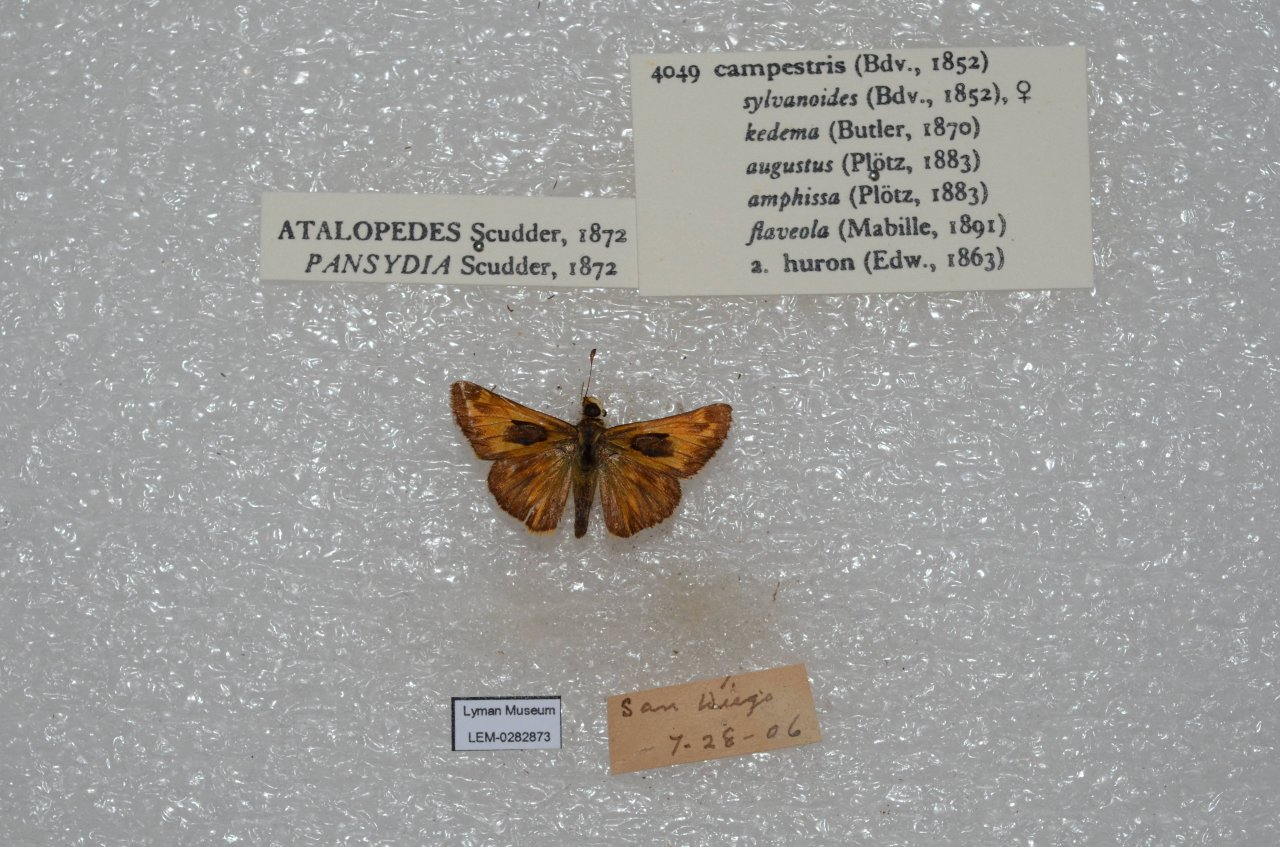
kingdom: Animalia
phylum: Arthropoda
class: Insecta
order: Lepidoptera
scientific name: Lepidoptera
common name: Butterflies
